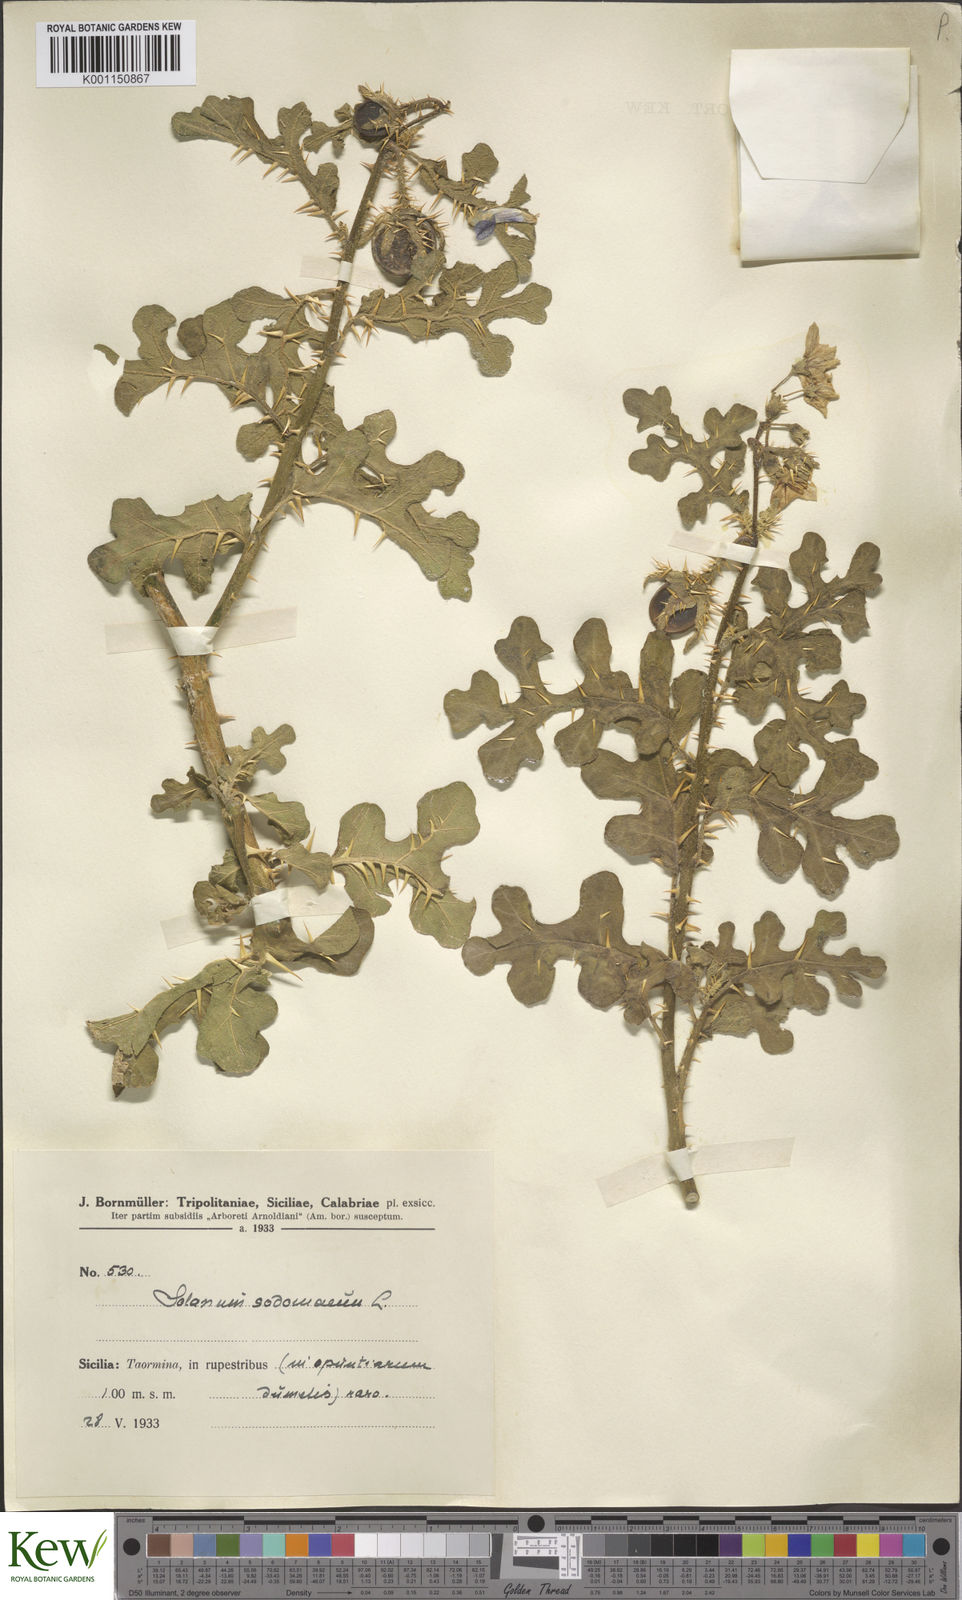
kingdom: Plantae
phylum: Tracheophyta
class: Magnoliopsida
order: Solanales
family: Solanaceae
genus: Solanum
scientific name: Solanum anguivi
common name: Forest bitterberry
